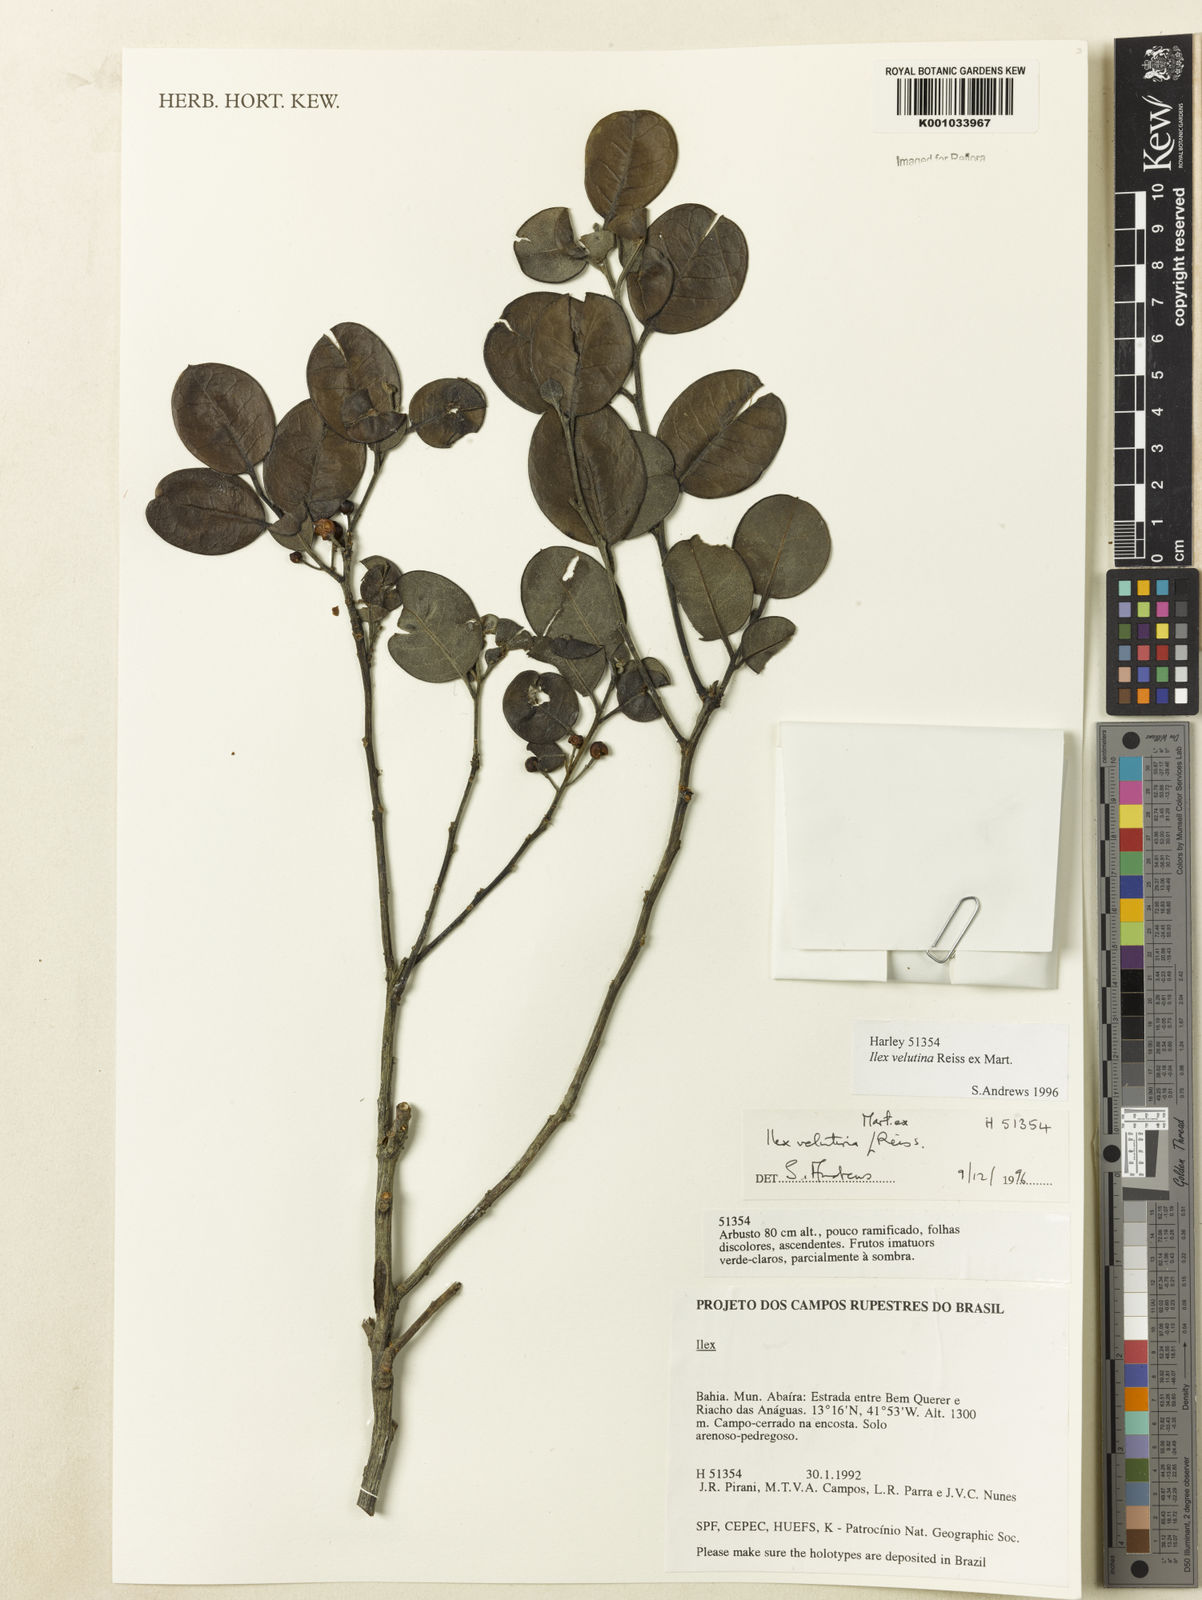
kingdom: Plantae
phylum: Tracheophyta
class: Magnoliopsida
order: Aquifoliales
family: Aquifoliaceae
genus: Ilex
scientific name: Ilex velutina
